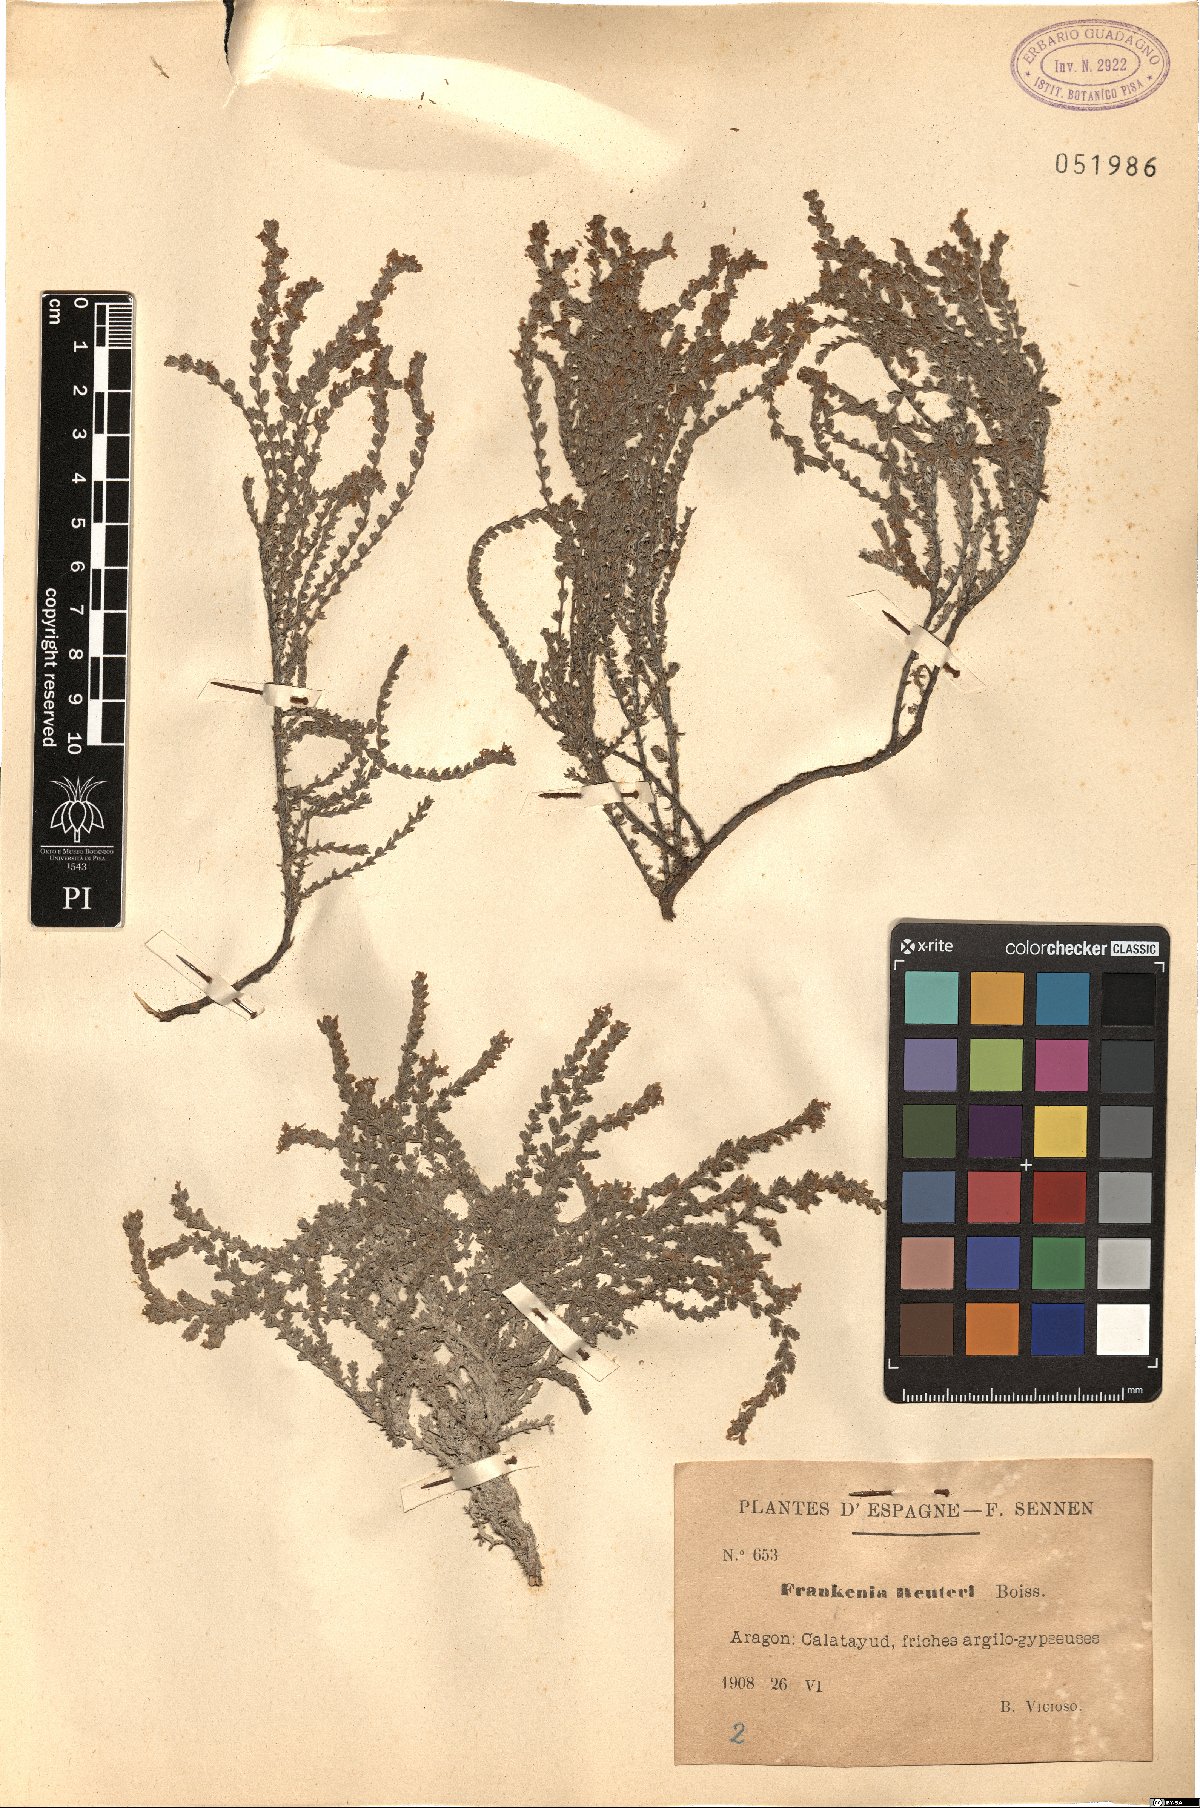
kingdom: Plantae
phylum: Tracheophyta
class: Magnoliopsida
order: Caryophyllales
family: Frankeniaceae
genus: Frankenia
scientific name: Frankenia thymifolia
